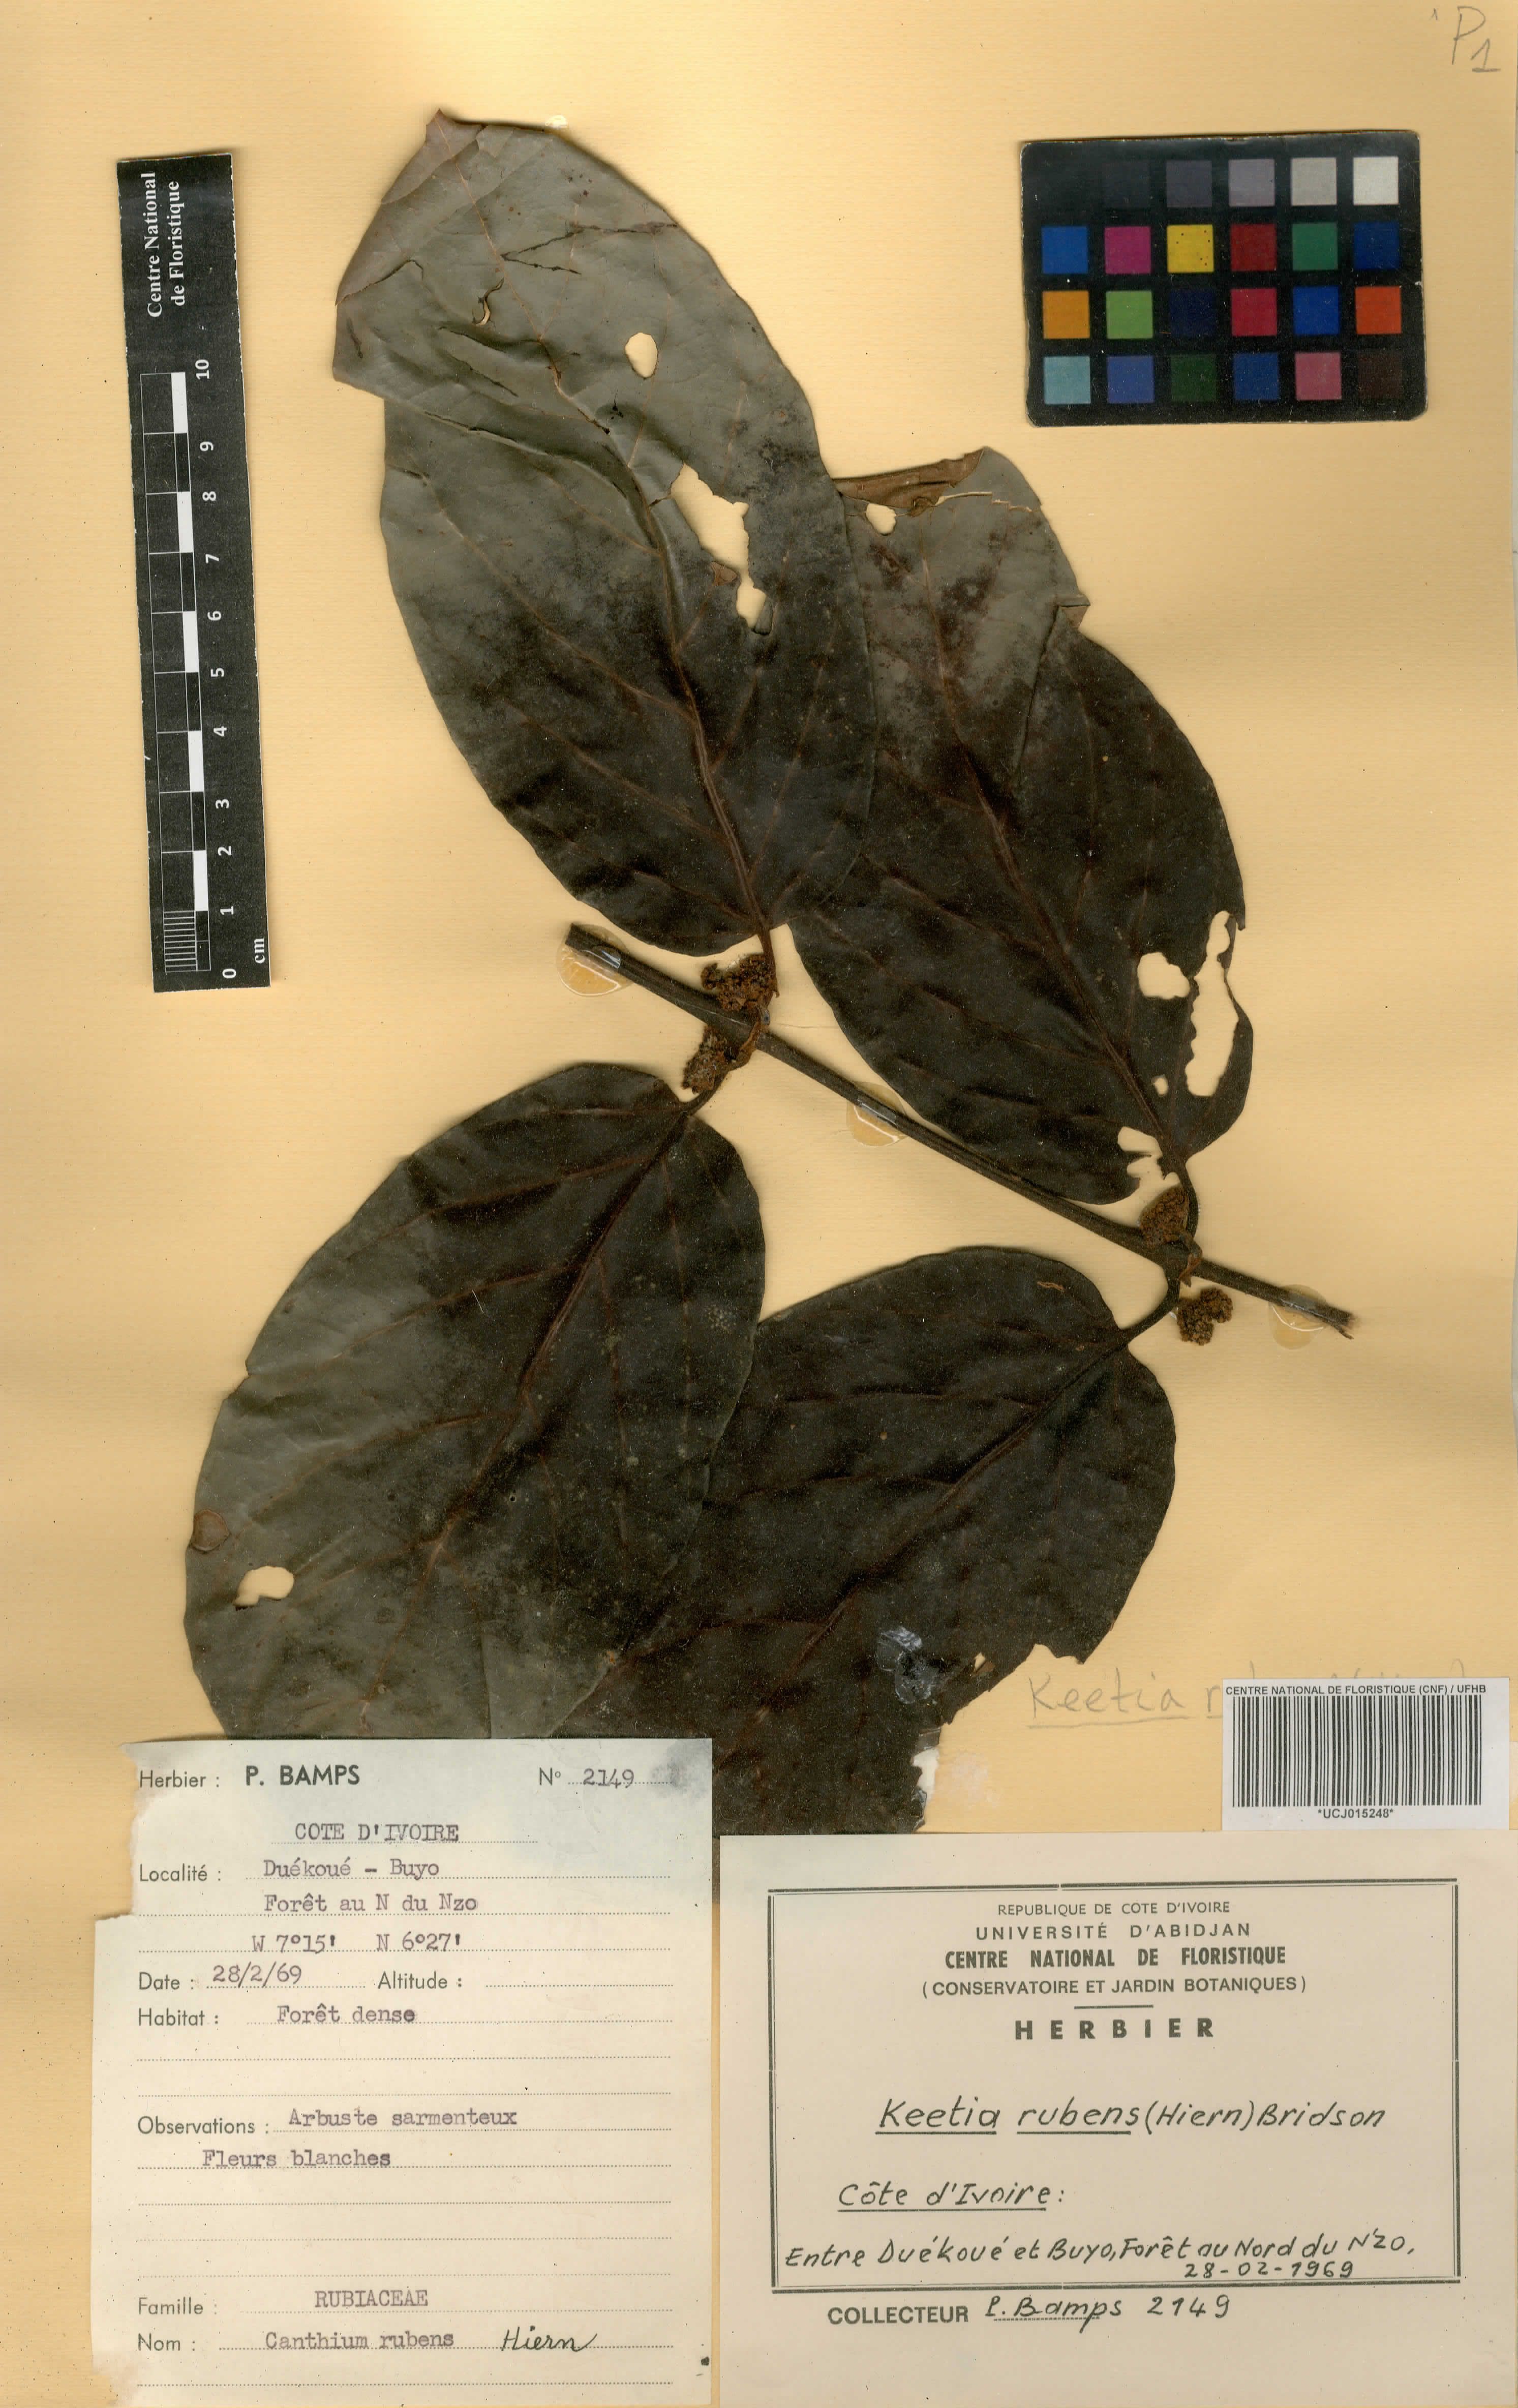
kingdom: Plantae
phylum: Tracheophyta
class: Magnoliopsida
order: Gentianales
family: Rubiaceae
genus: Keetia
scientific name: Keetia rubens
